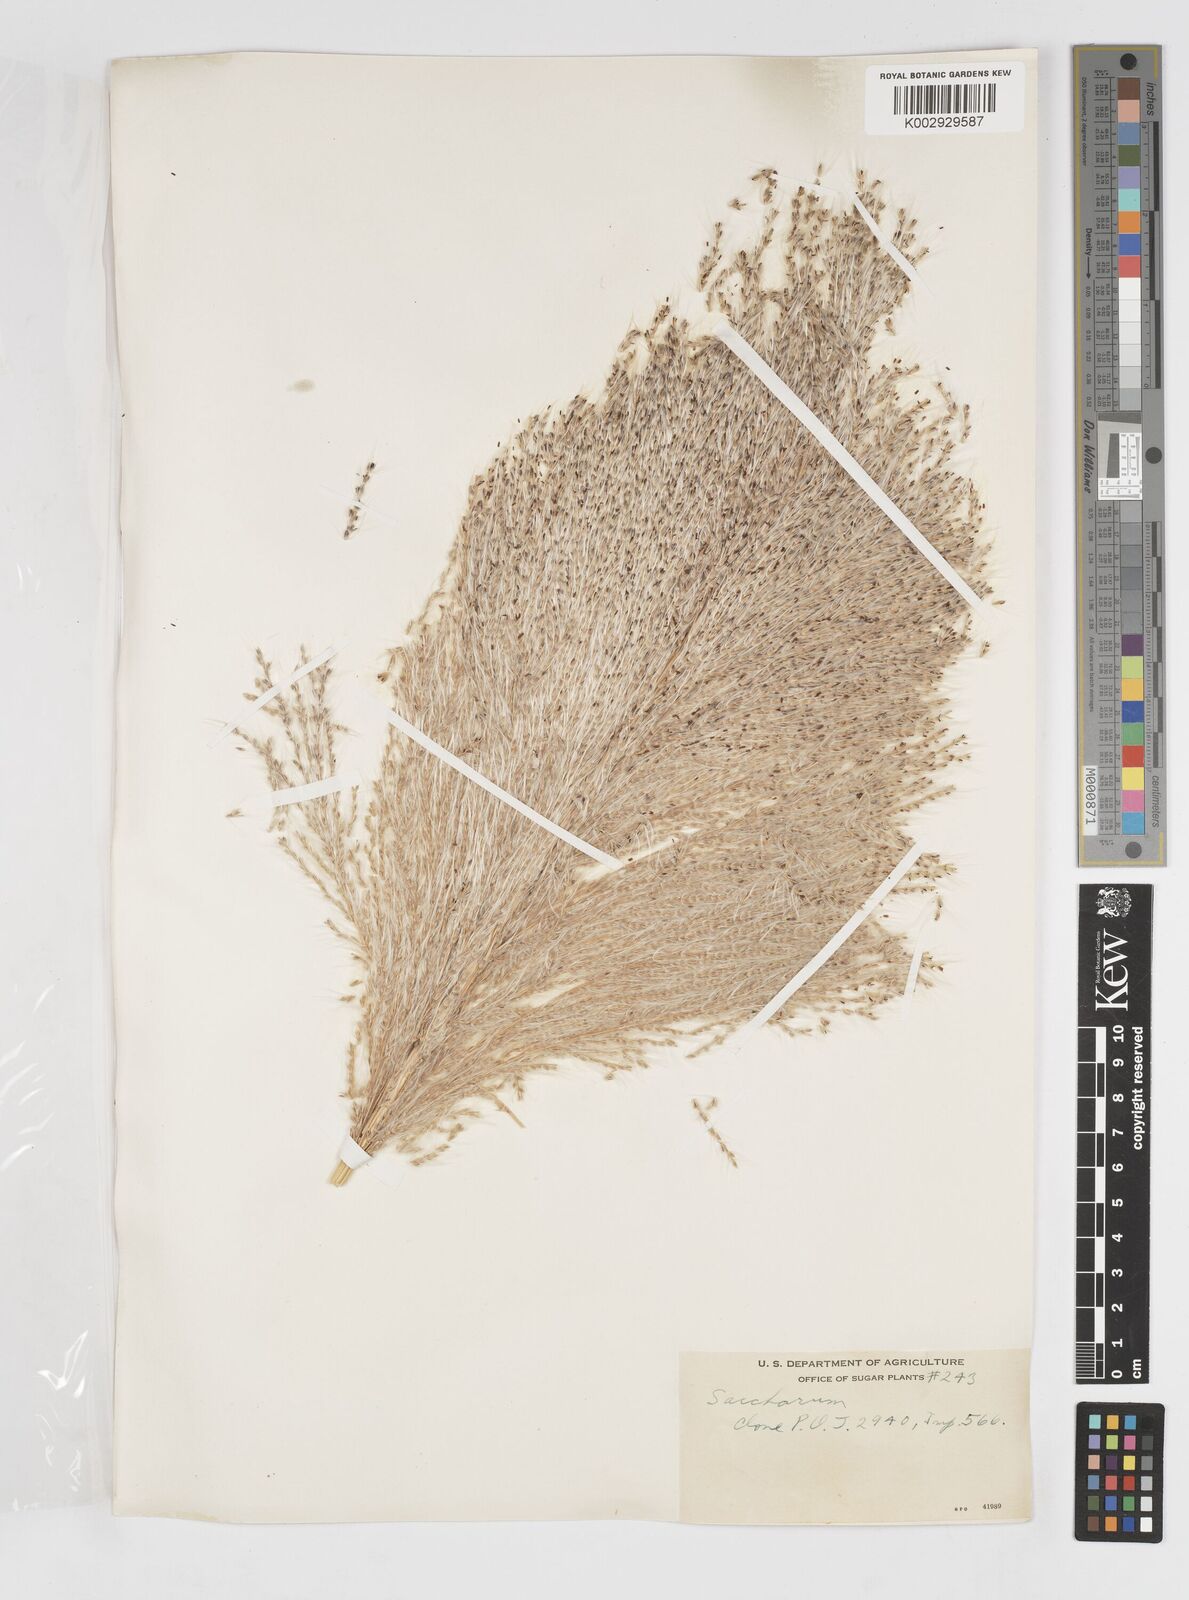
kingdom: Plantae
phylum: Tracheophyta
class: Liliopsida
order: Poales
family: Poaceae
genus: Saccharum
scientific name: Saccharum officinarum
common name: Sugarcane
